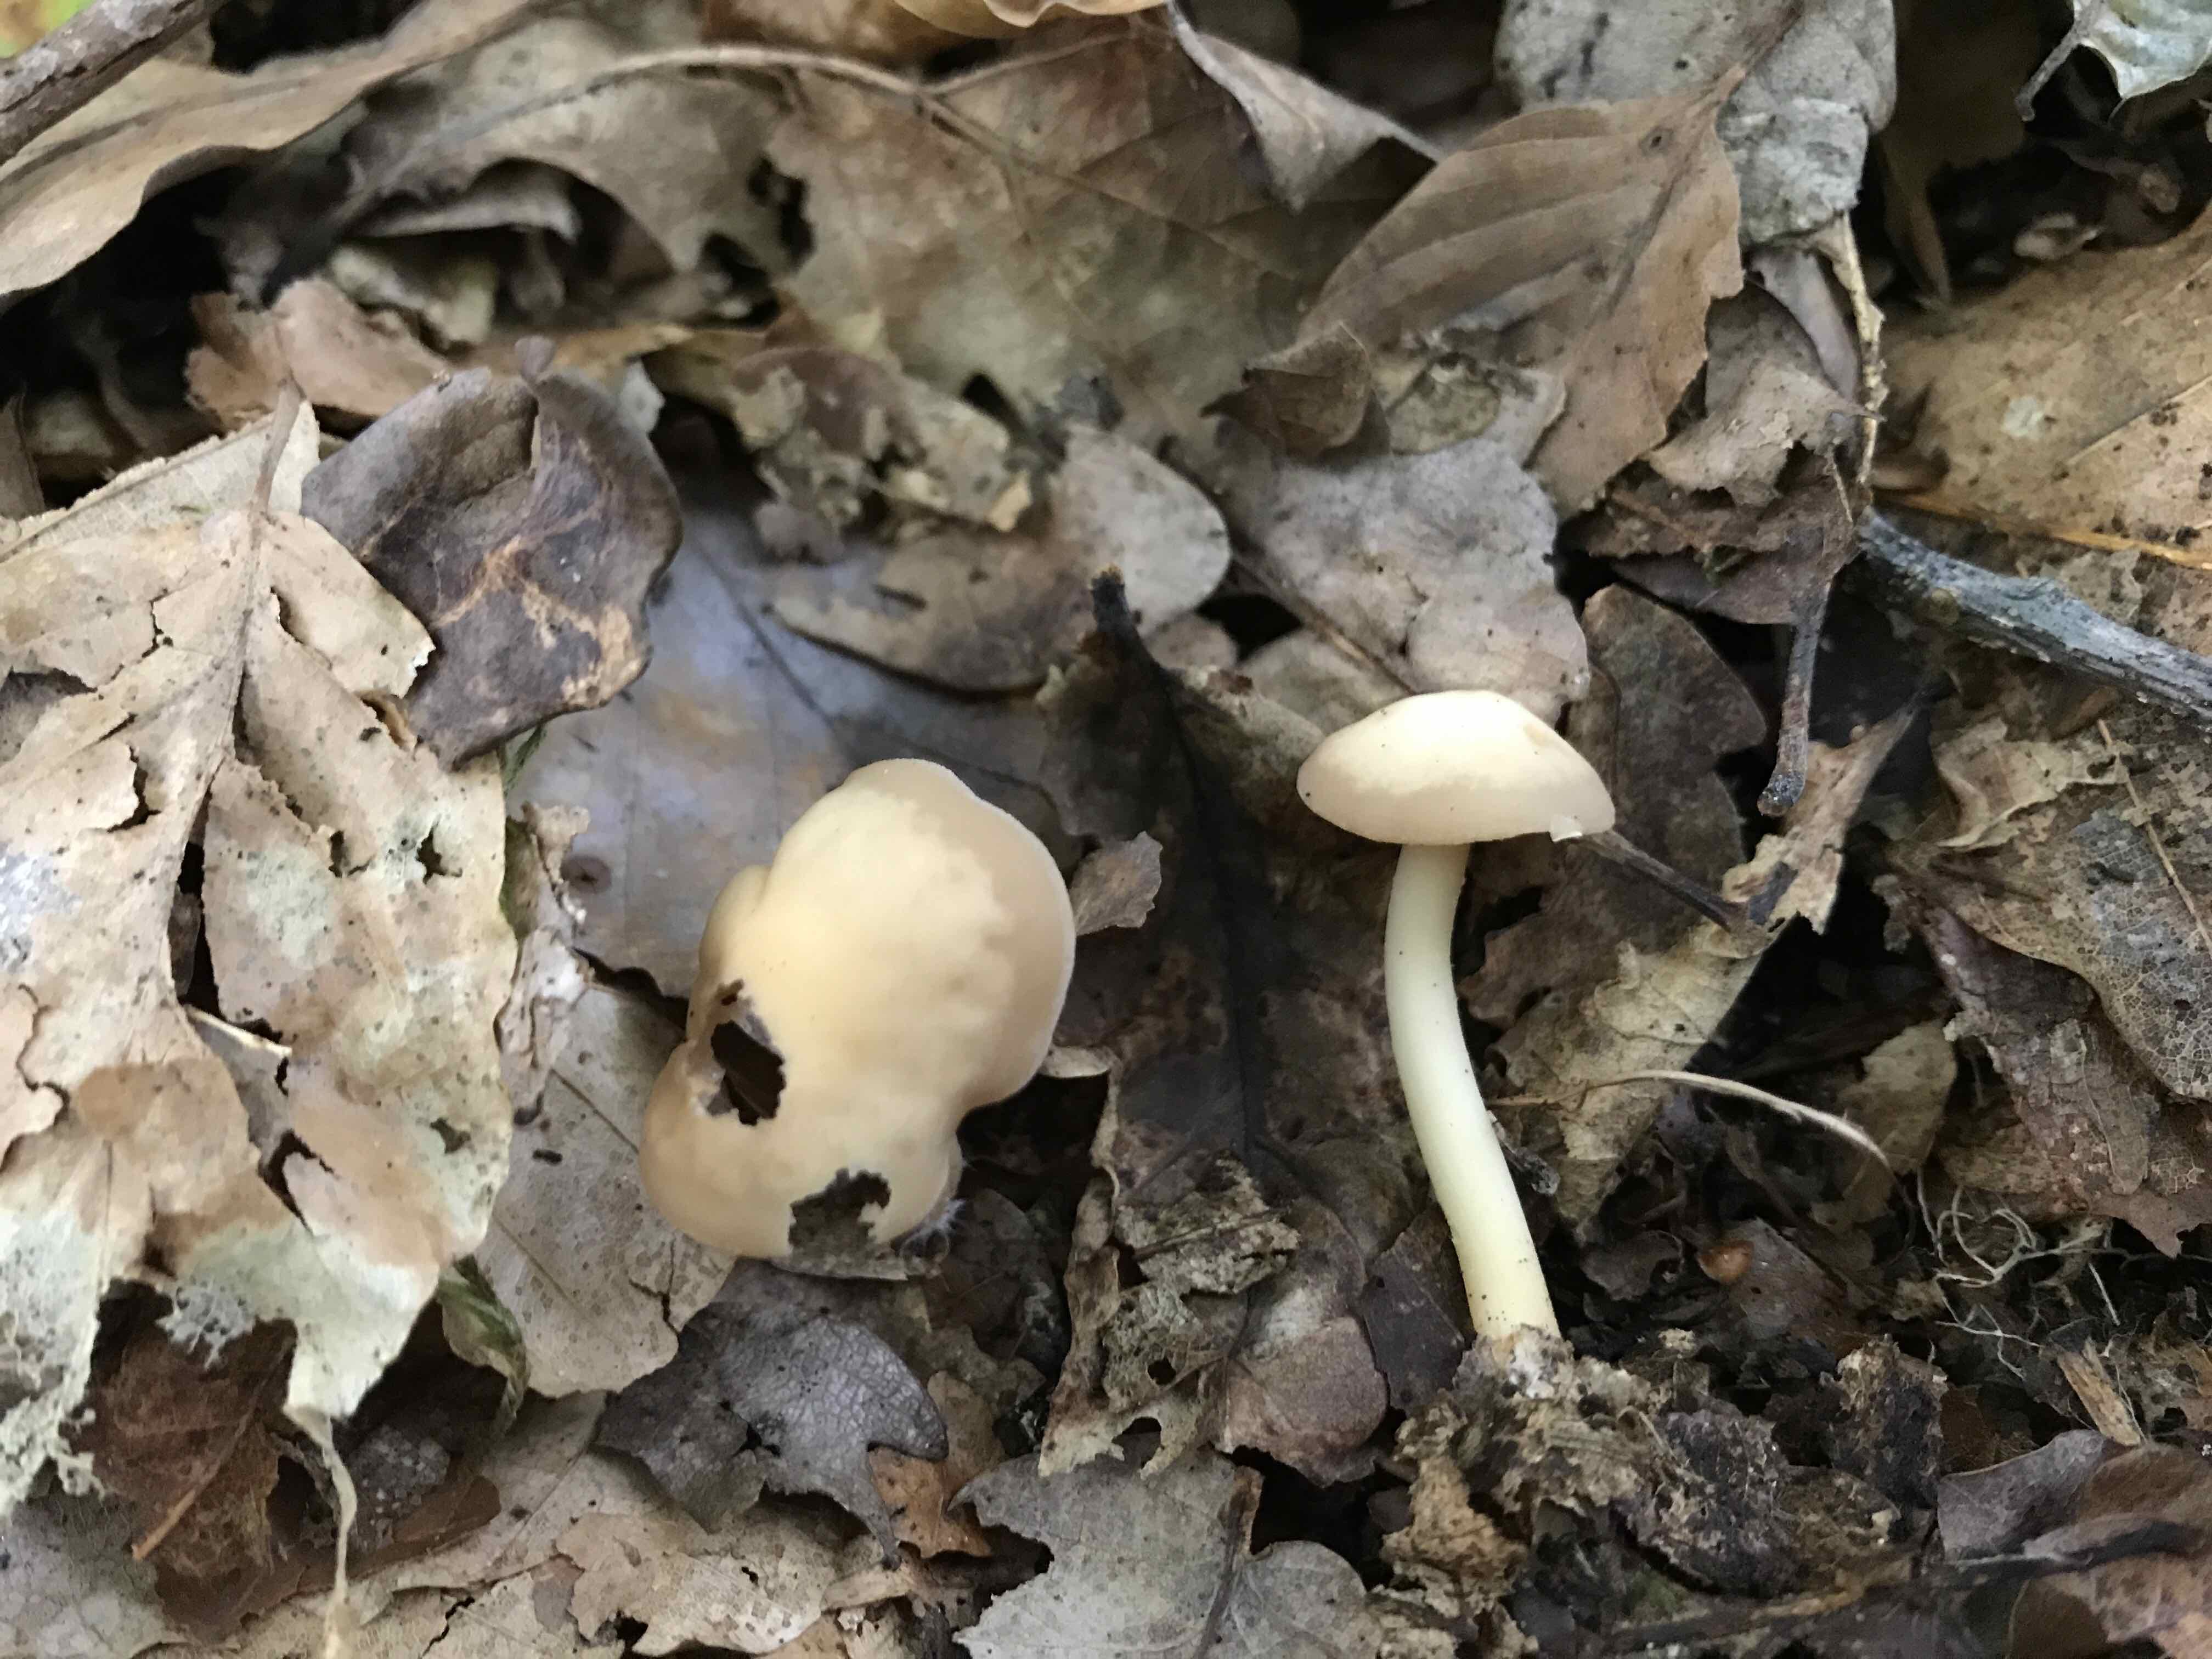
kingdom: Fungi
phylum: Basidiomycota
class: Agaricomycetes
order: Agaricales
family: Omphalotaceae
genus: Gymnopus
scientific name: Gymnopus aquosus
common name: bleg fladhat
